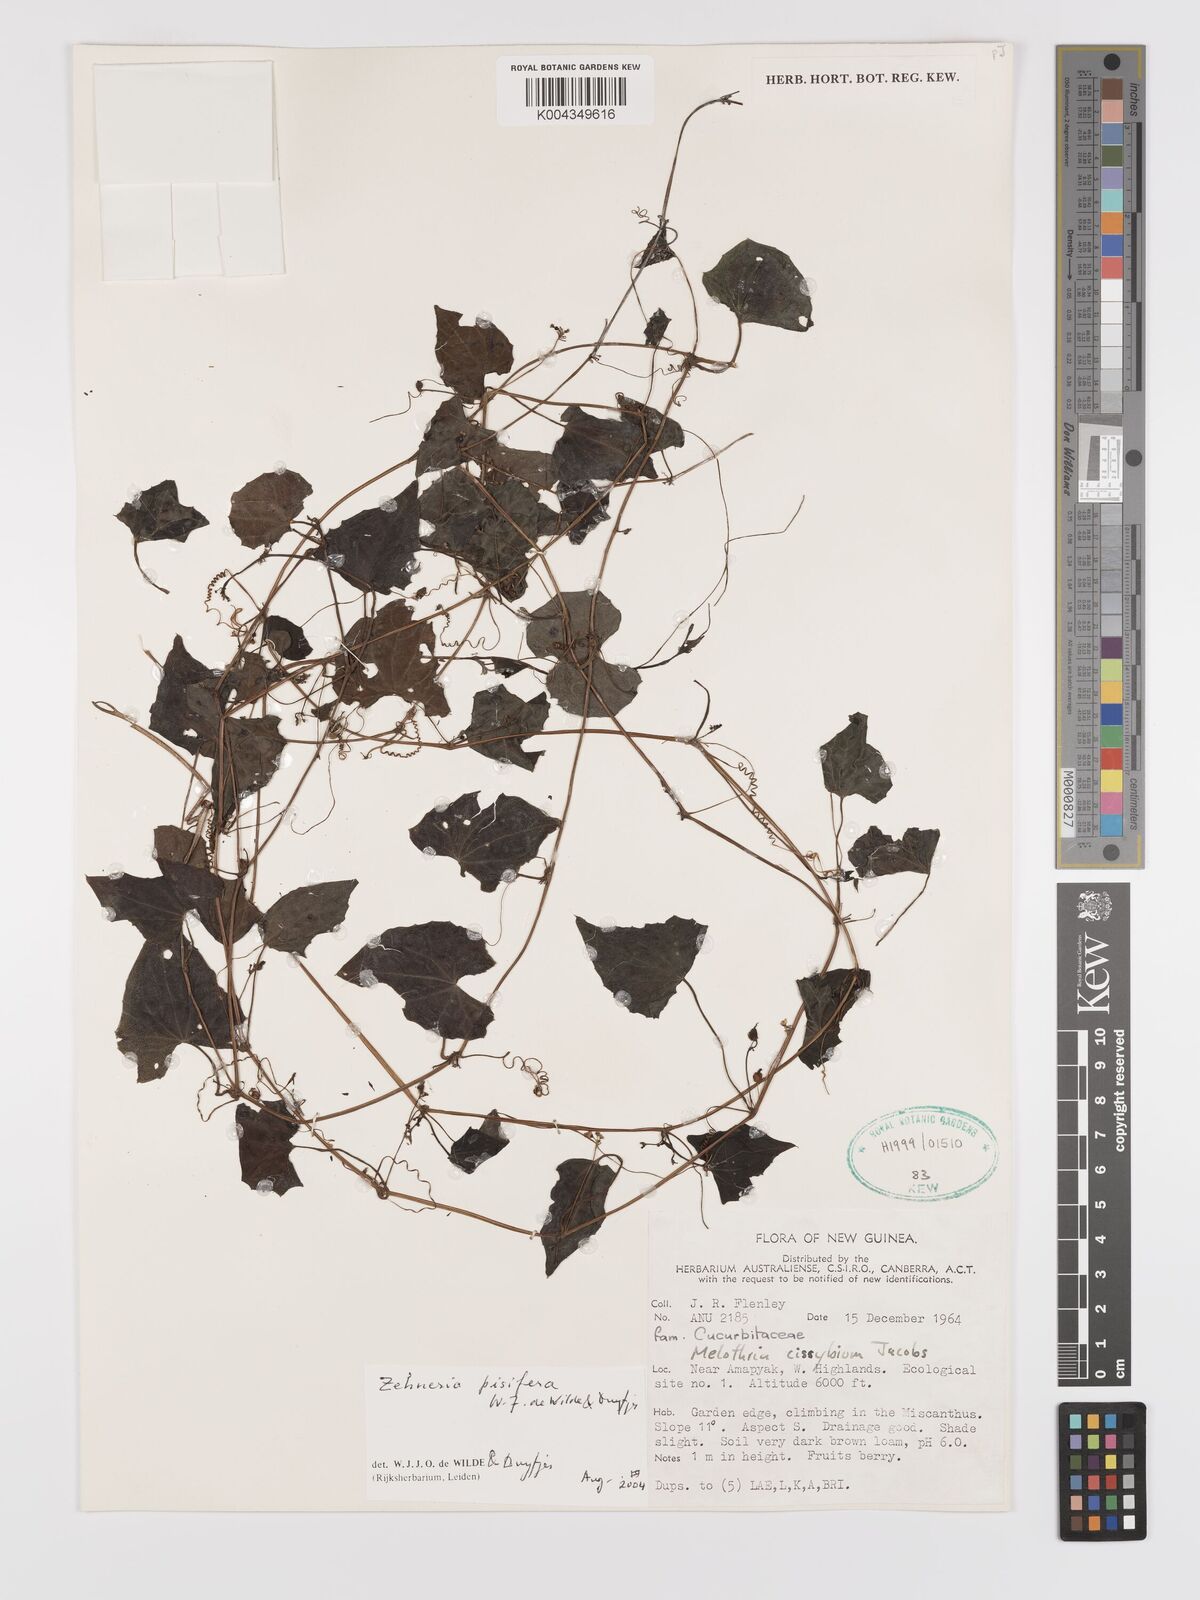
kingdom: Plantae
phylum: Tracheophyta
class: Magnoliopsida
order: Cucurbitales
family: Cucurbitaceae
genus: Zehneria
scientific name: Zehneria pisifera
